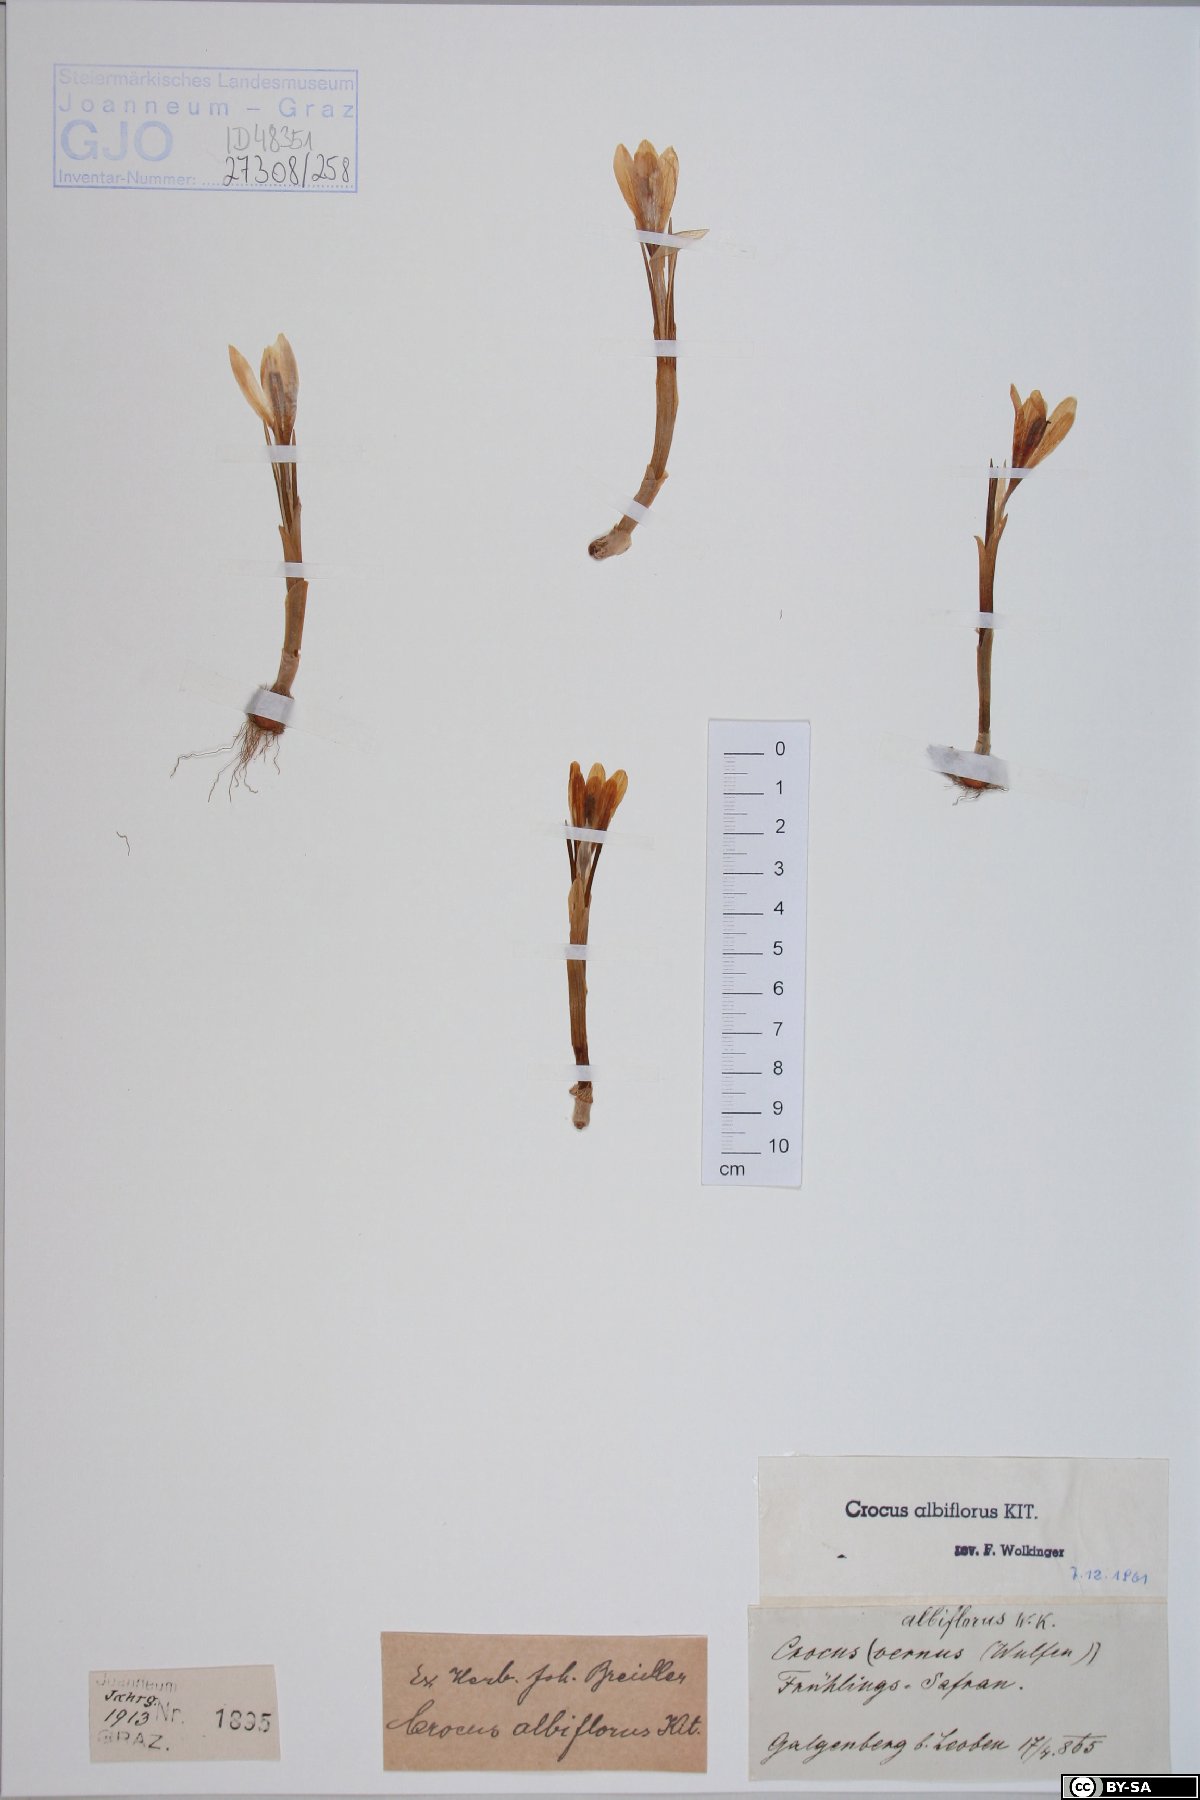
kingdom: Plantae
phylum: Tracheophyta
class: Liliopsida
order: Asparagales
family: Iridaceae
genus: Crocus
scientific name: Crocus vernus
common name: Spring crocus
